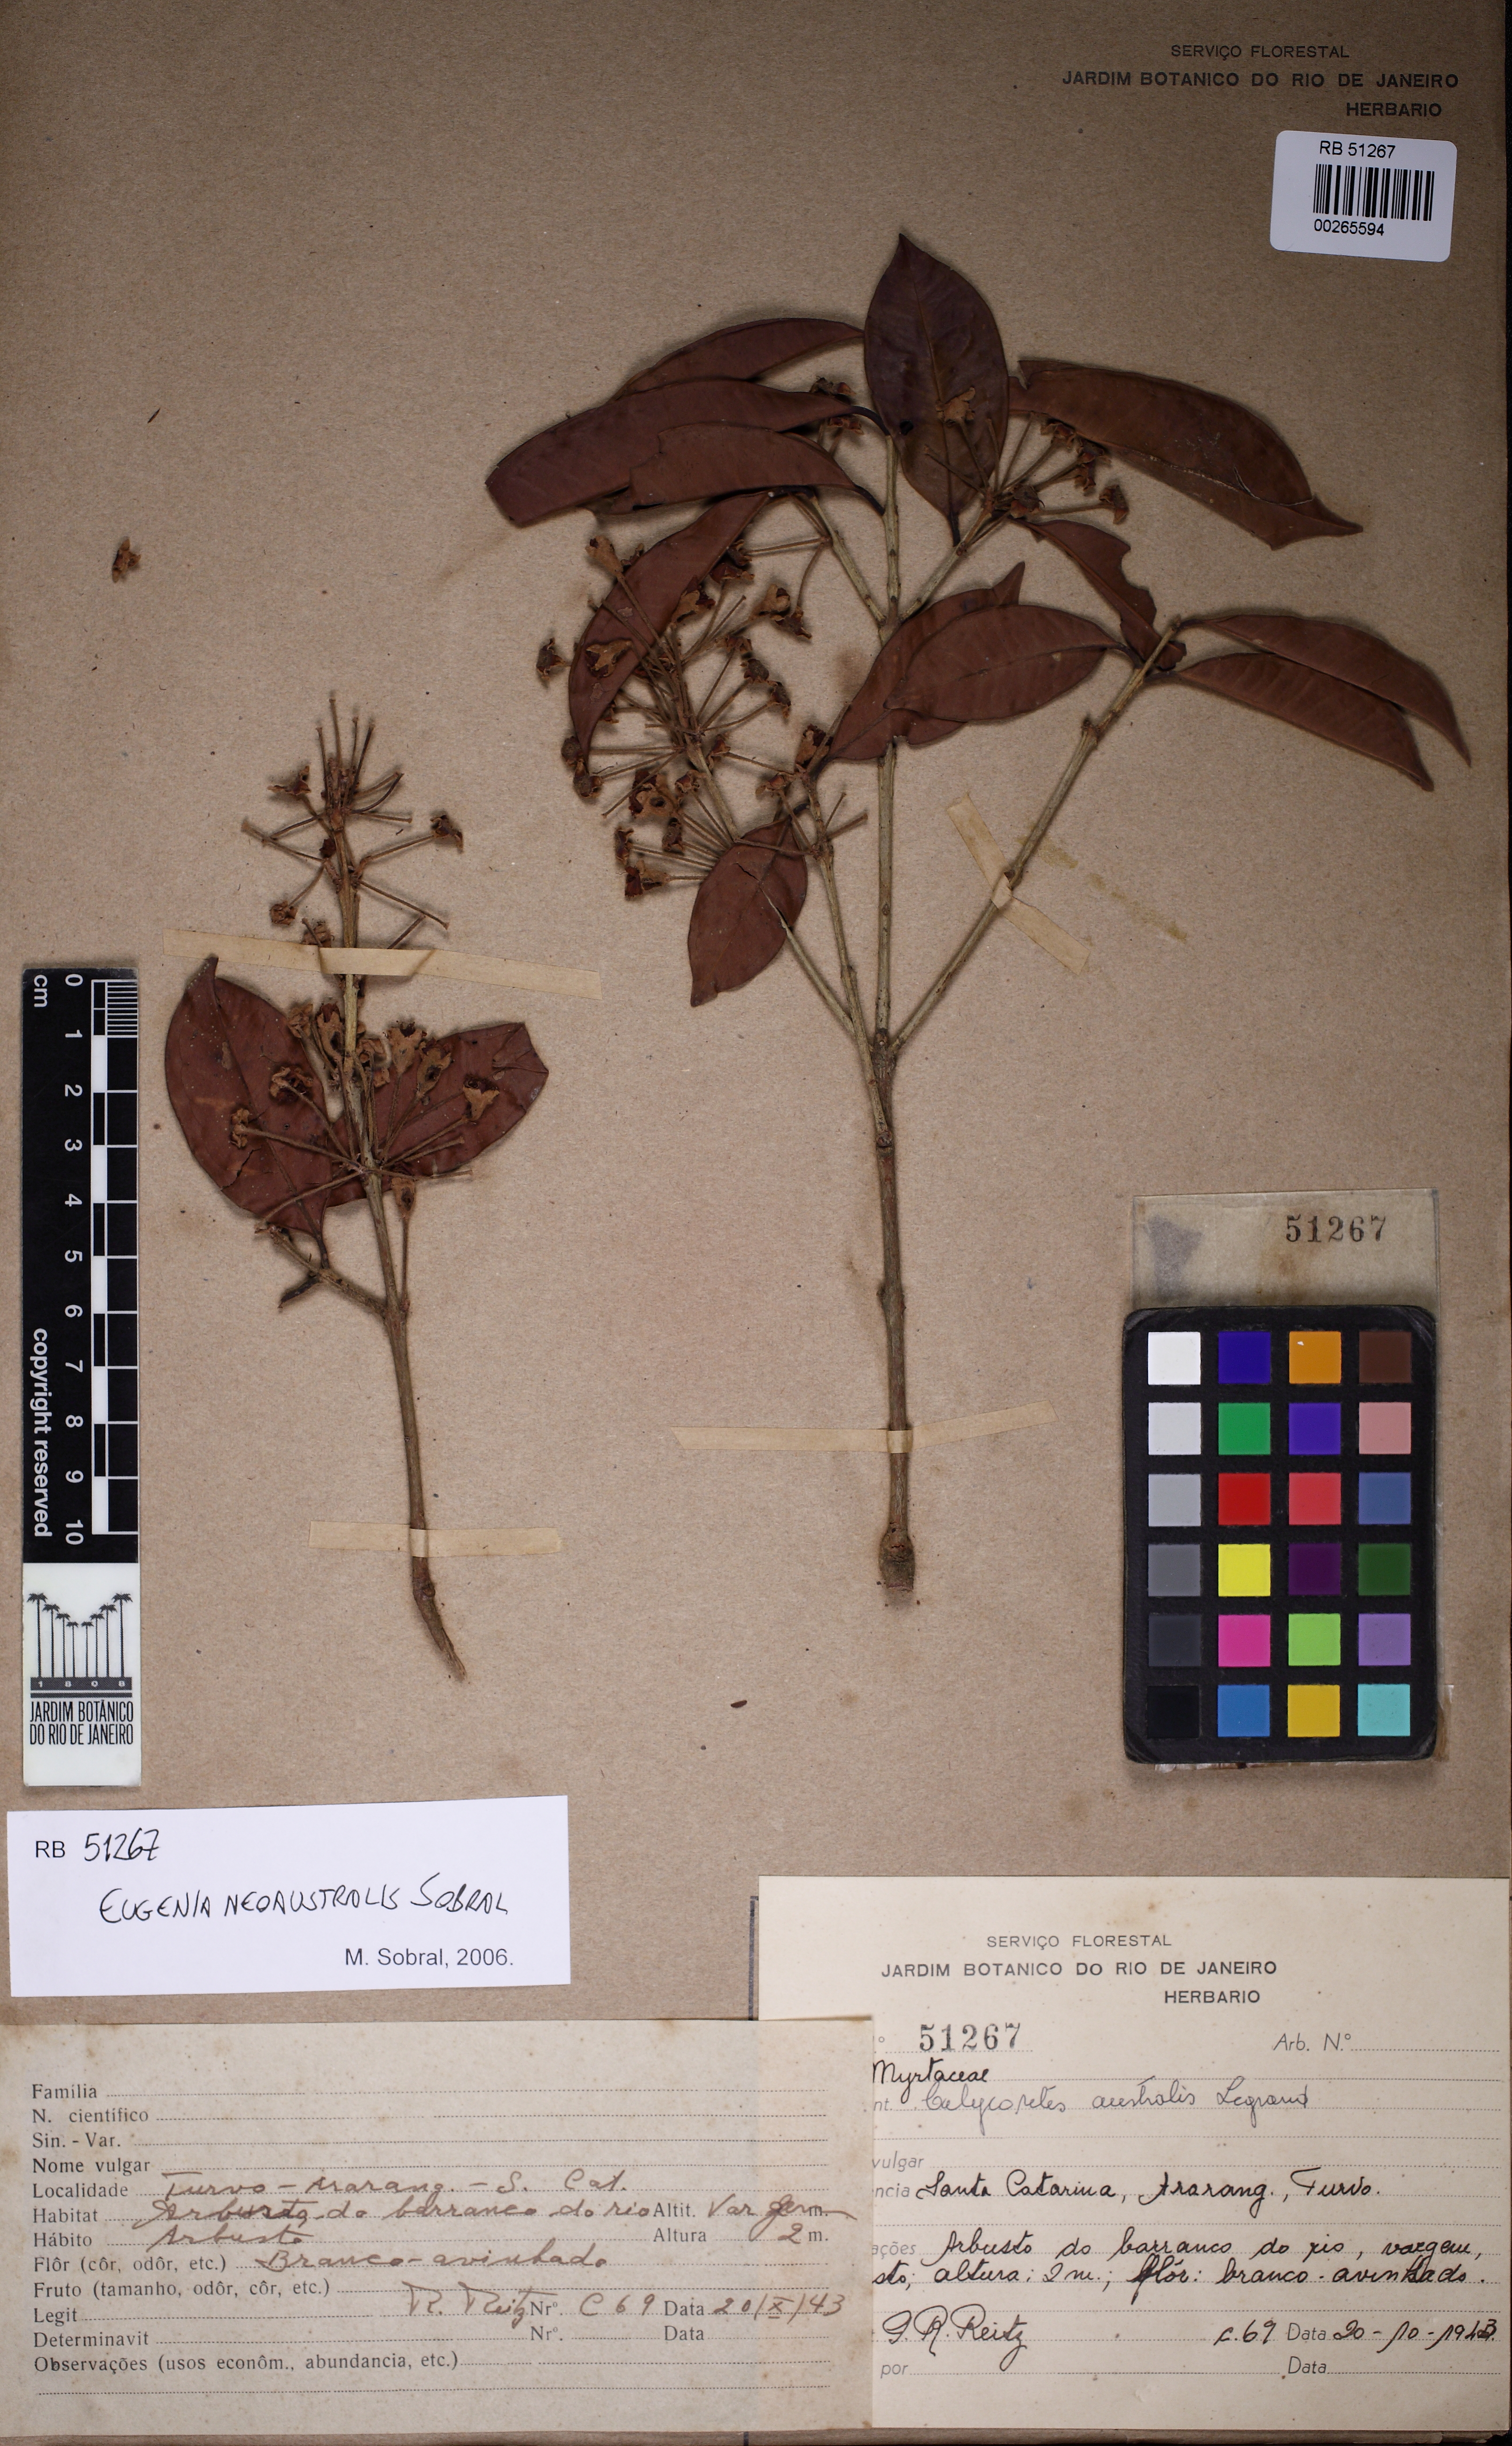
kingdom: Plantae
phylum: Tracheophyta
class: Magnoliopsida
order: Myrtales
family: Myrtaceae
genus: Eugenia
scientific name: Eugenia neoaustralis
